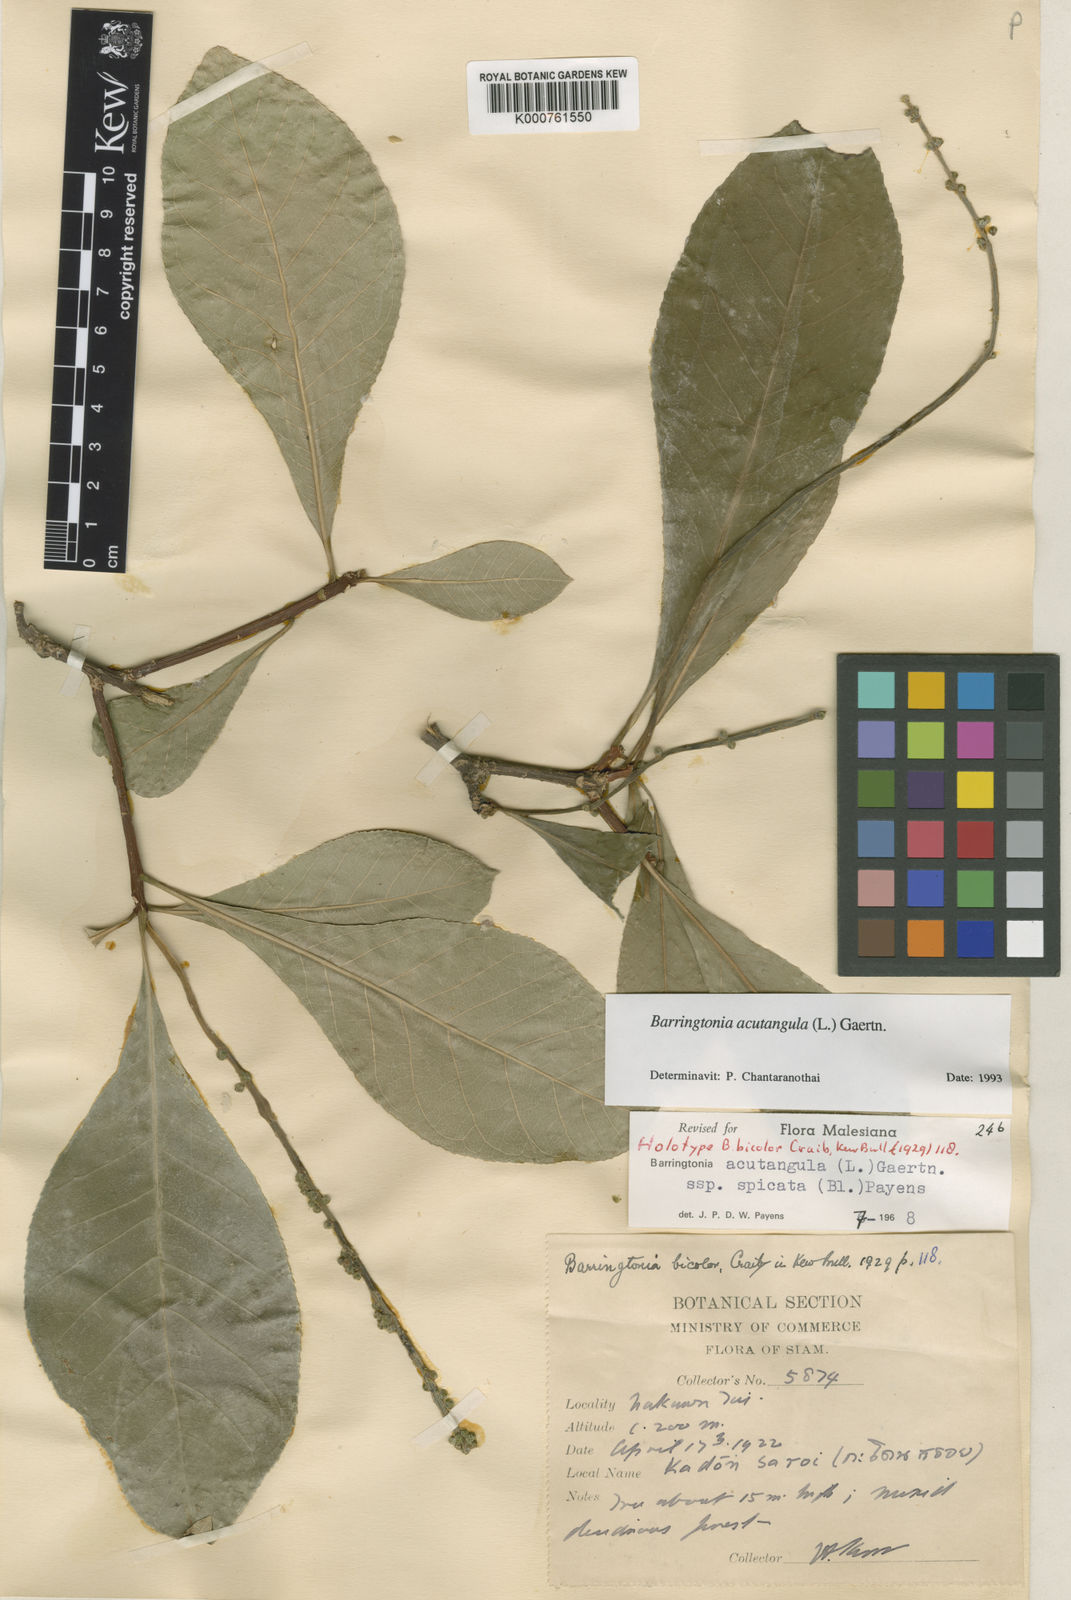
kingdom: Plantae
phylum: Tracheophyta
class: Magnoliopsida
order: Ericales
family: Lecythidaceae
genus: Barringtonia
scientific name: Barringtonia schmidtii
